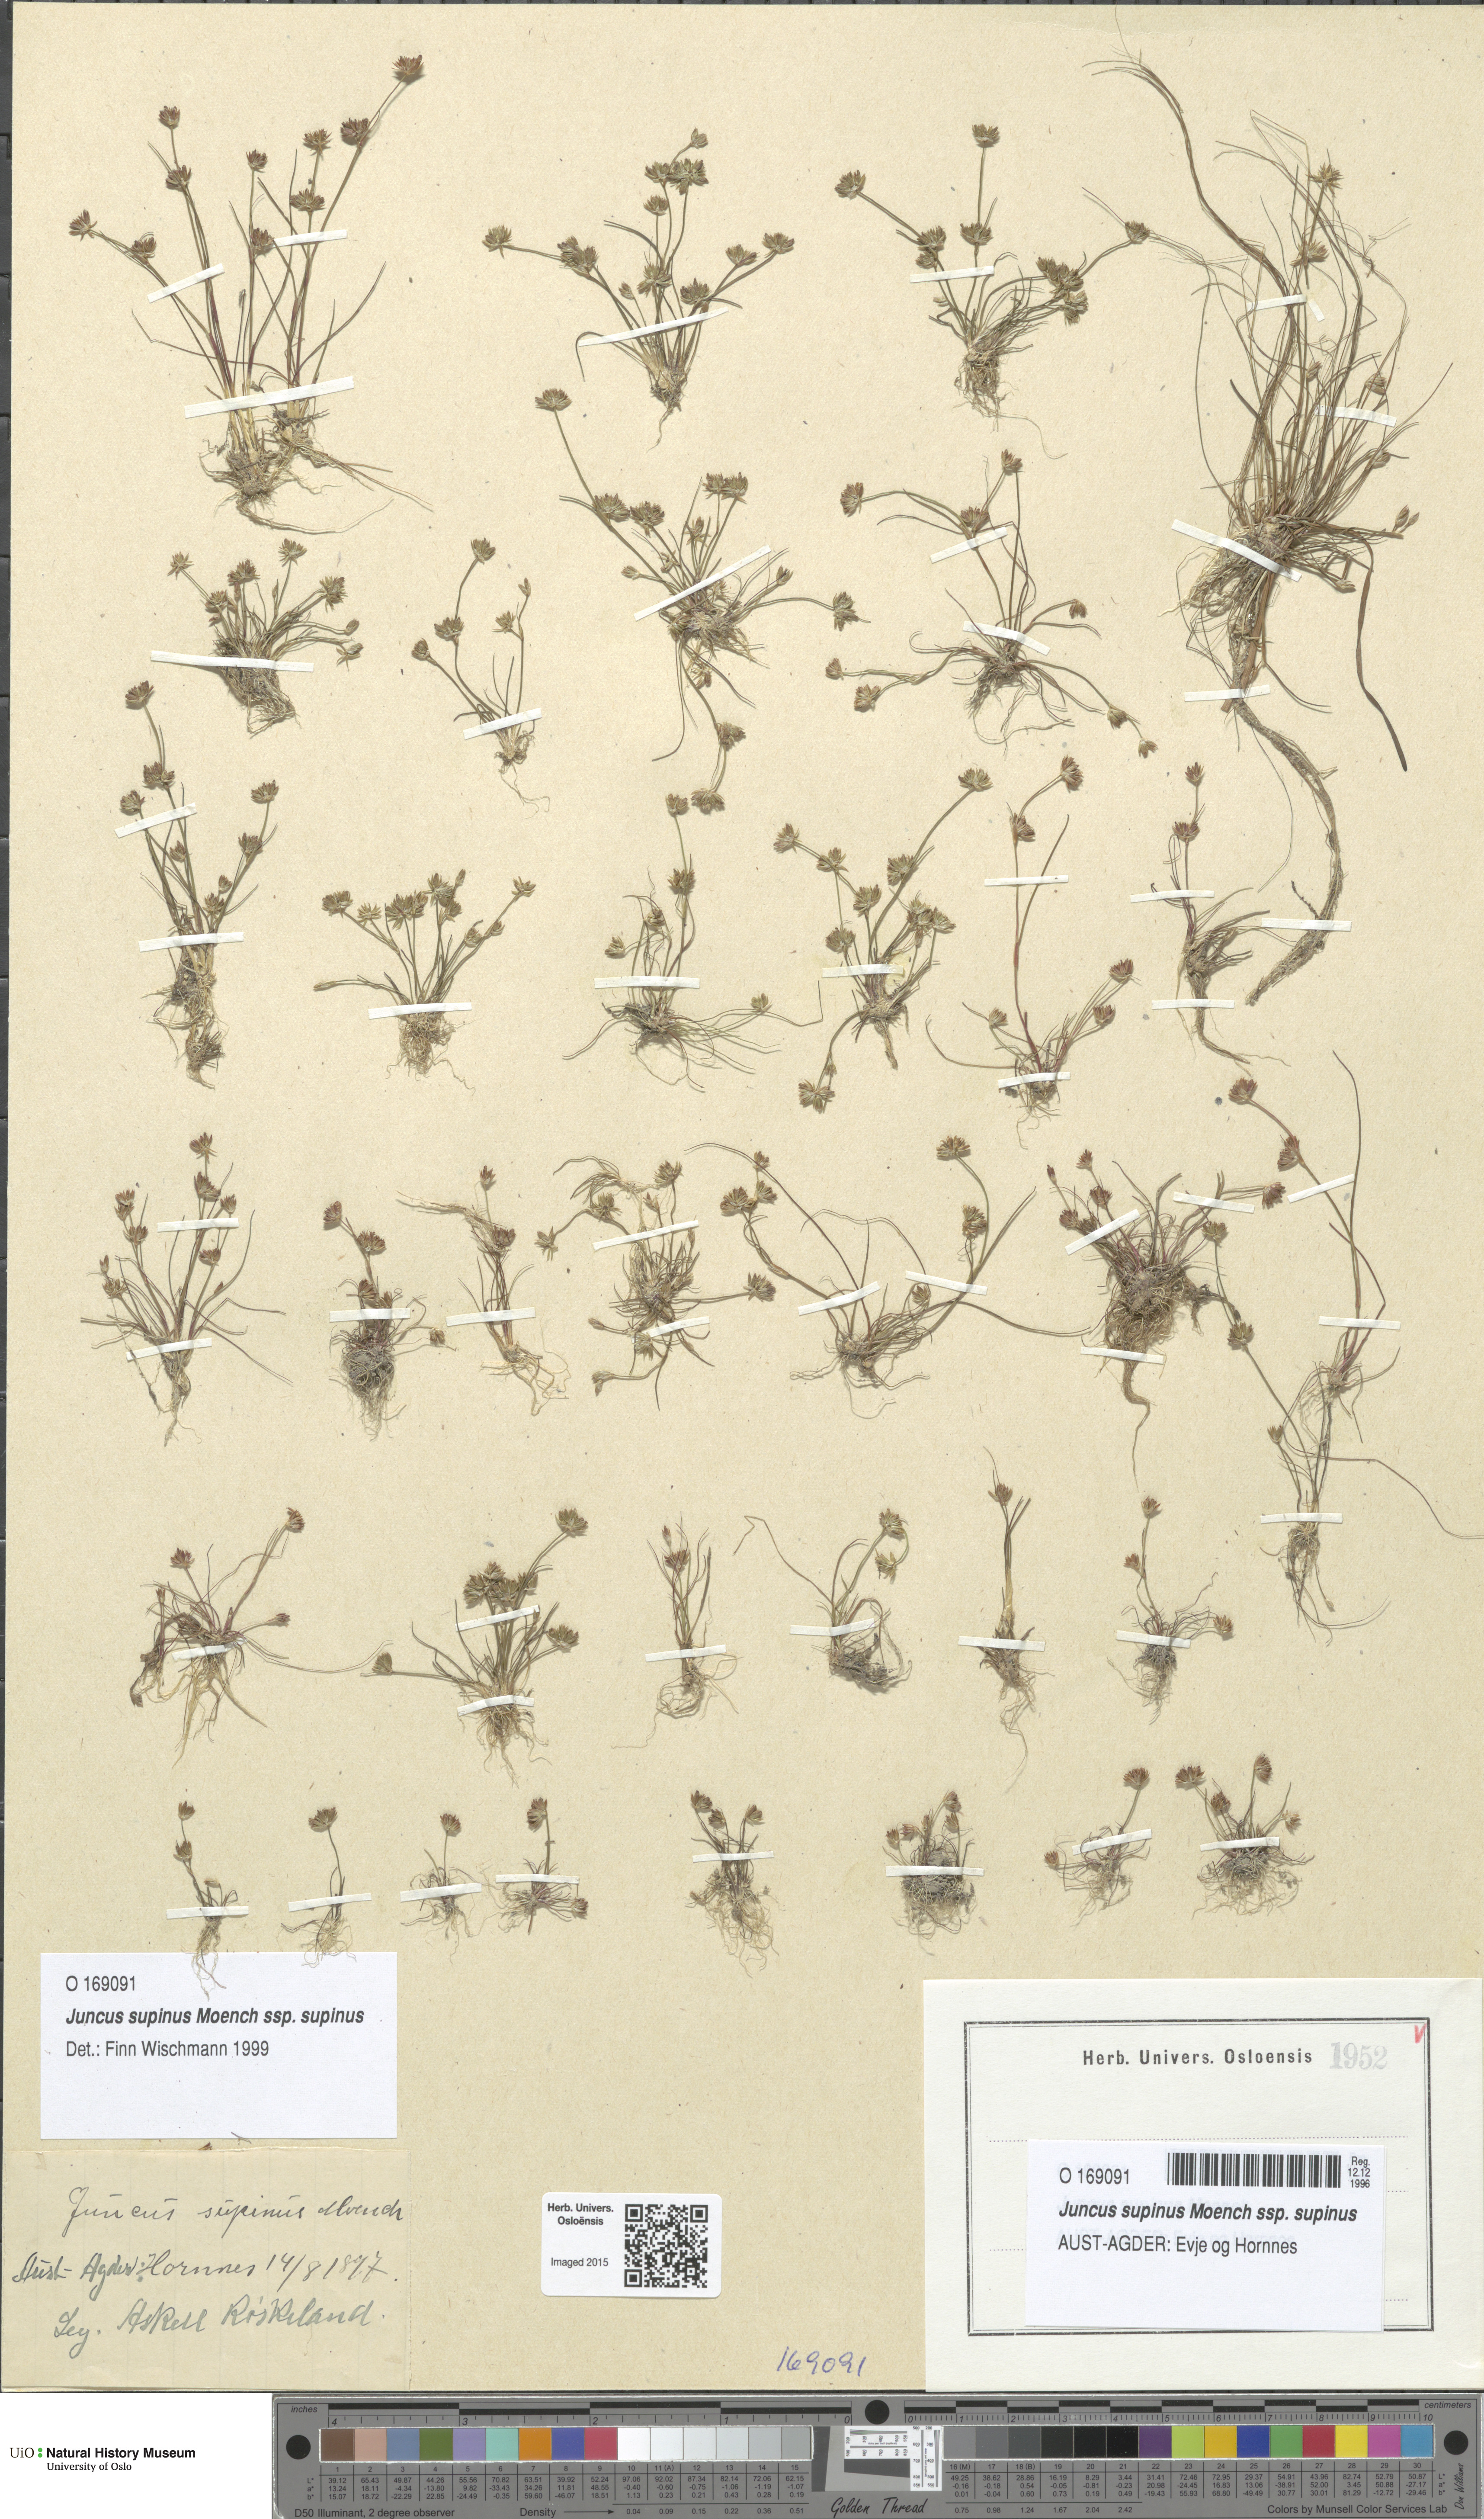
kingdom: Plantae
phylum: Tracheophyta
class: Liliopsida
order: Poales
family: Juncaceae
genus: Juncus
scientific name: Juncus bulbosus
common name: Bulbous rush
